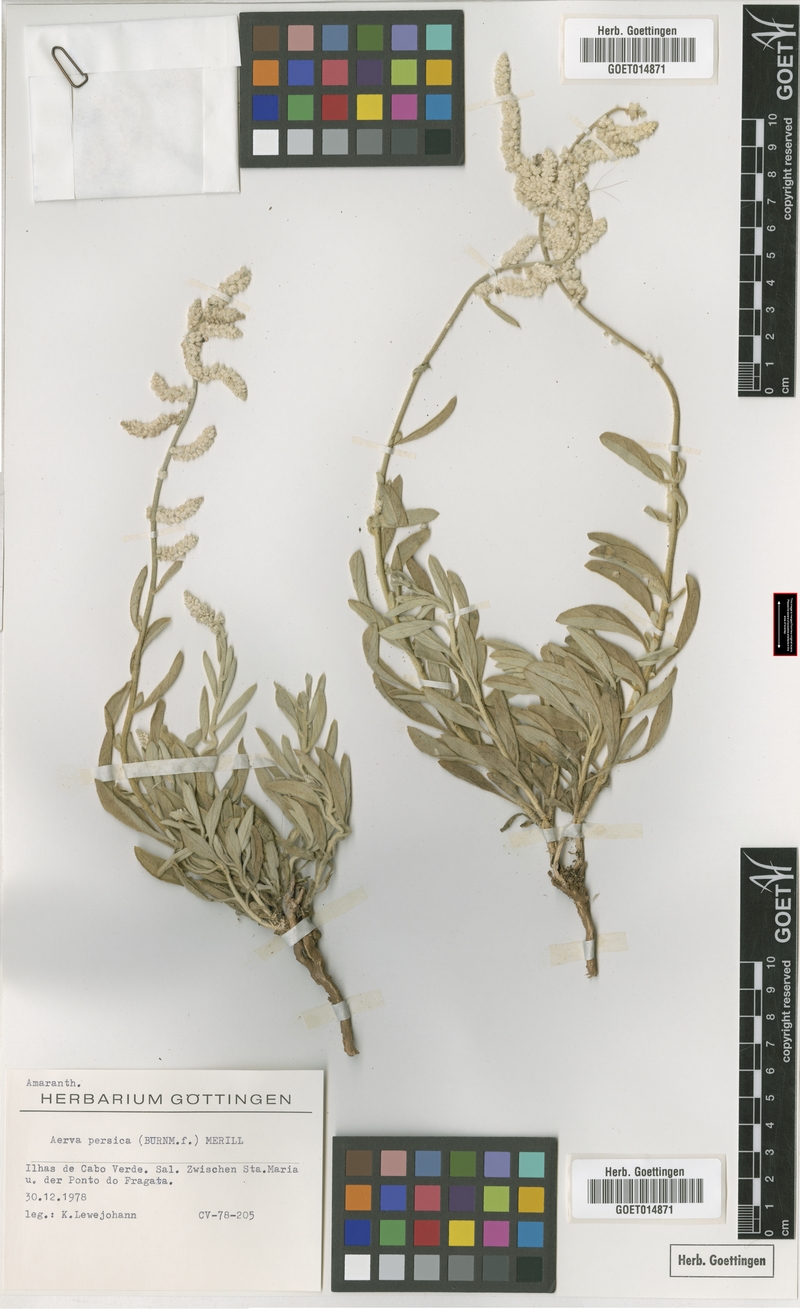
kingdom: Plantae
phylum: Tracheophyta
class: Magnoliopsida
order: Caryophyllales
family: Amaranthaceae
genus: Aerva
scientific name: Aerva javanica
